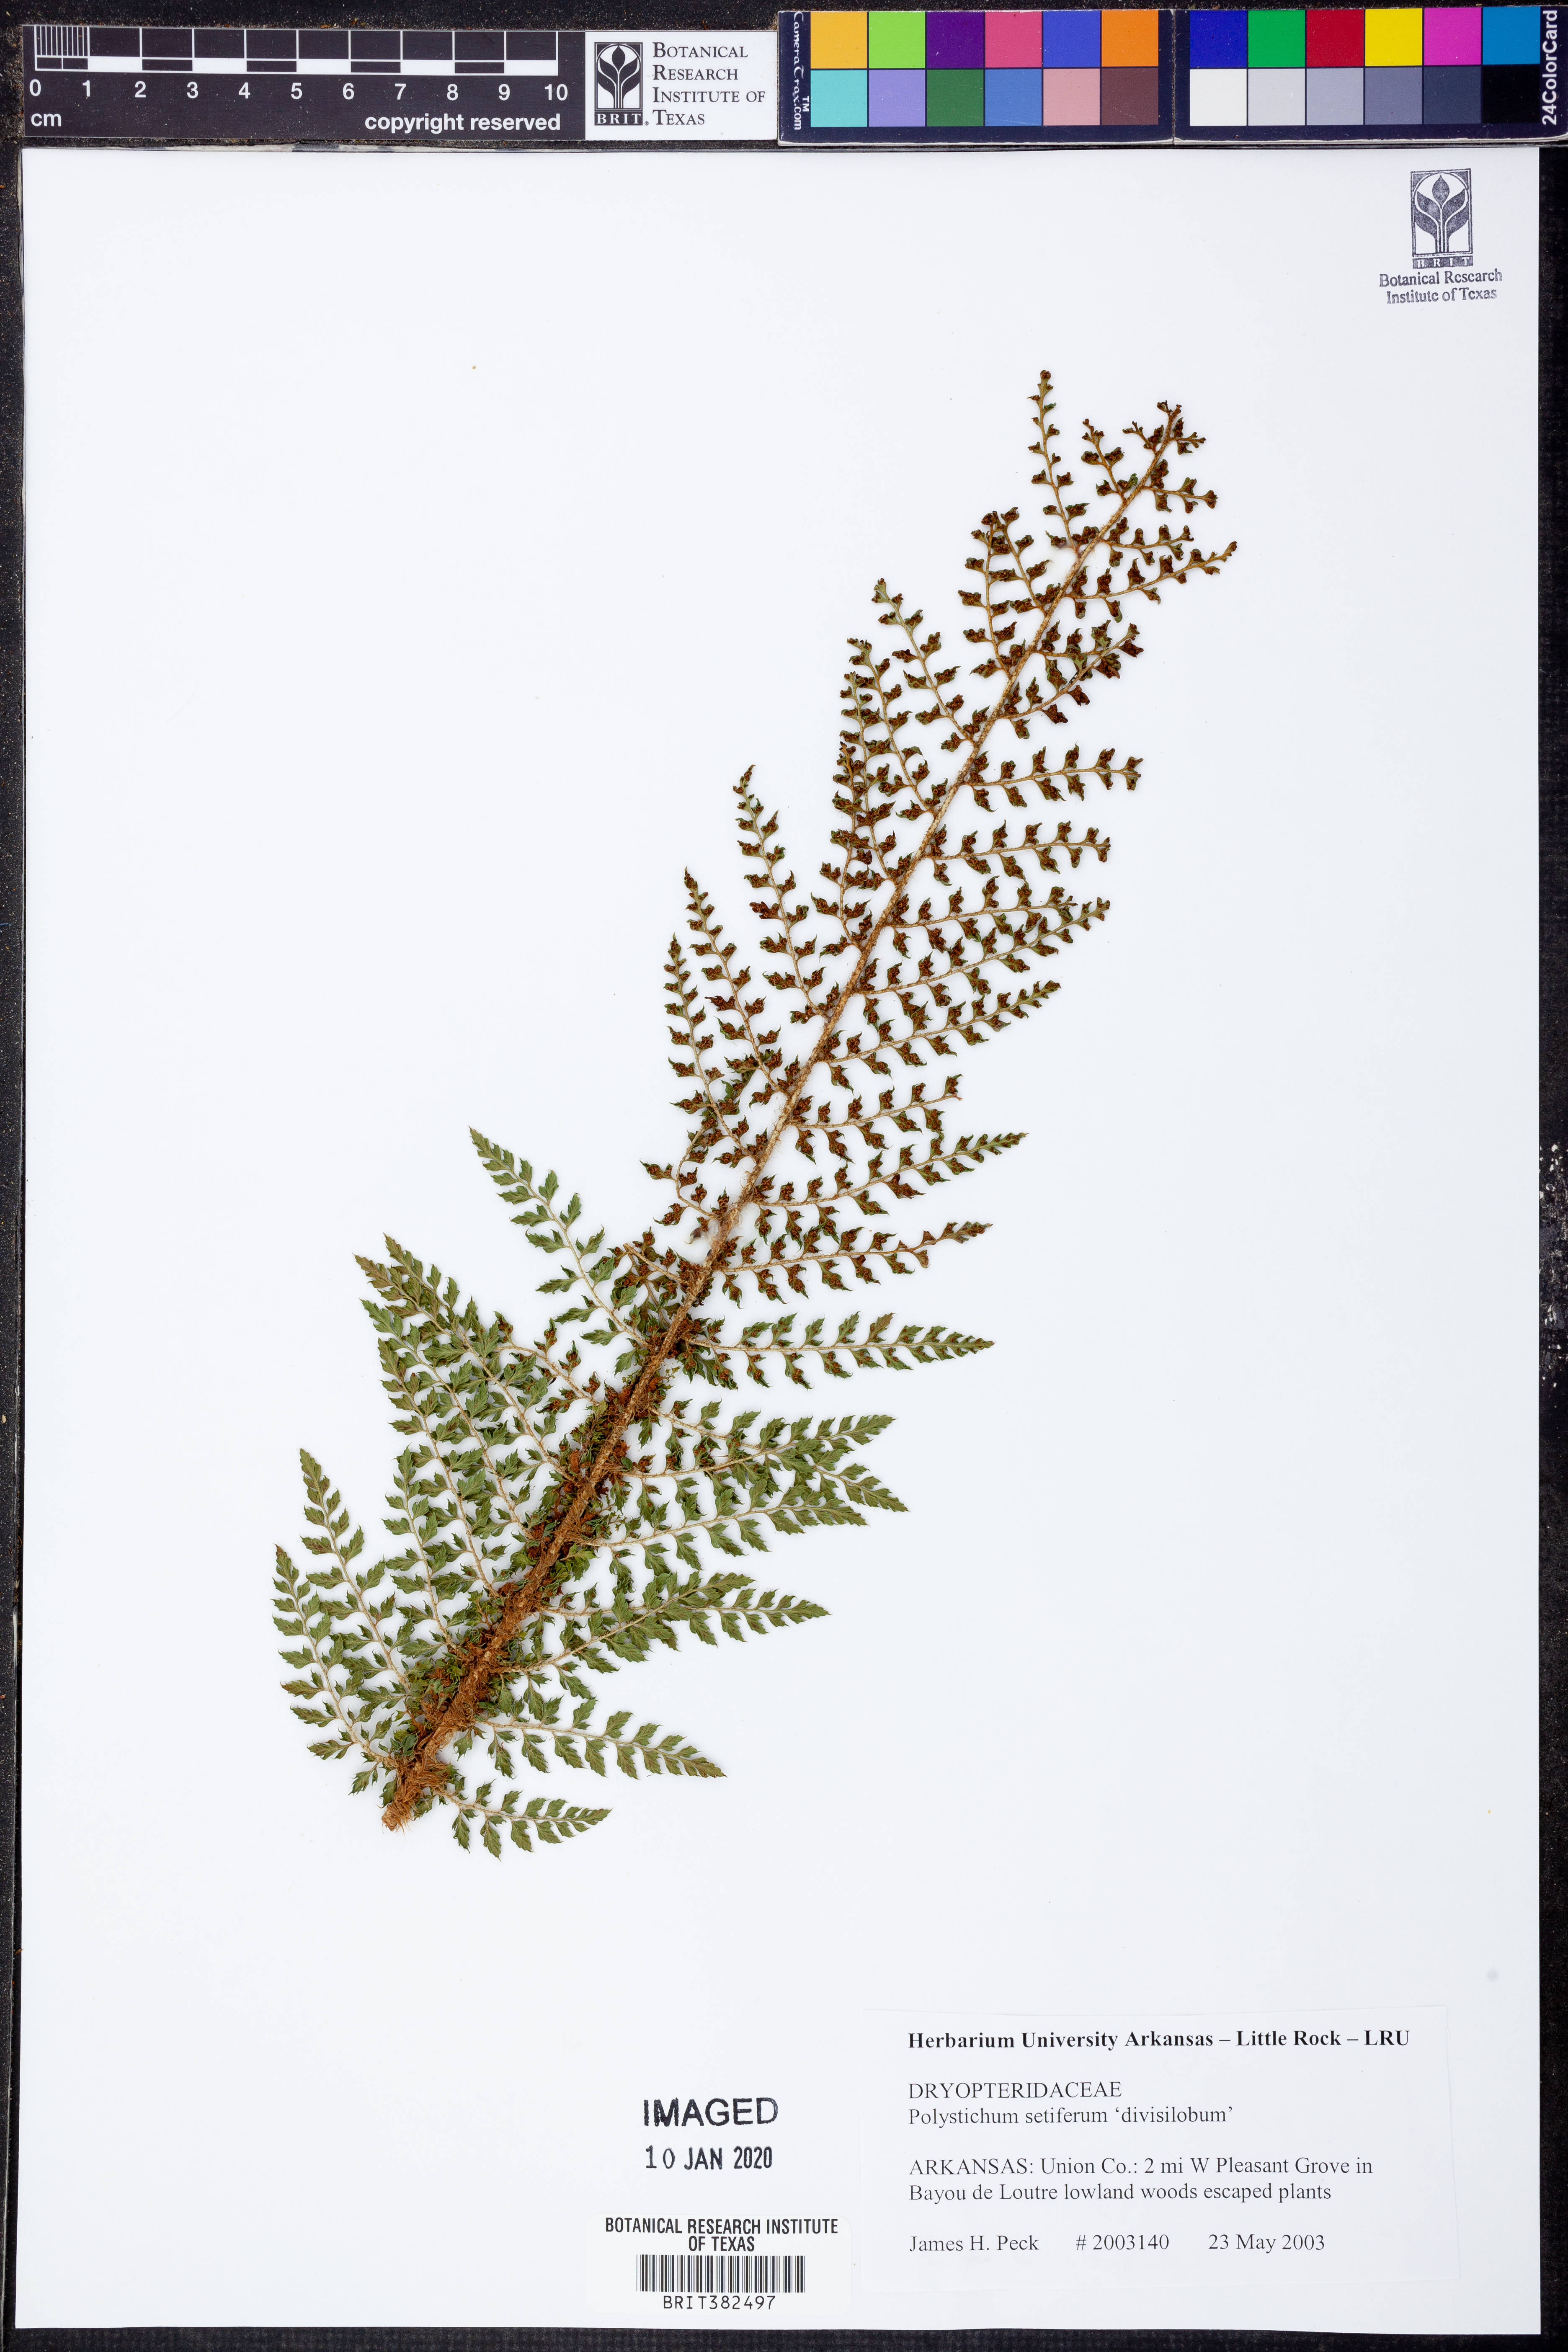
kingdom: Plantae
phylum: Tracheophyta
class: Polypodiopsida
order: Polypodiales
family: Dryopteridaceae
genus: Polystichum
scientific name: Polystichum setiferum
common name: Soft shield-fern
